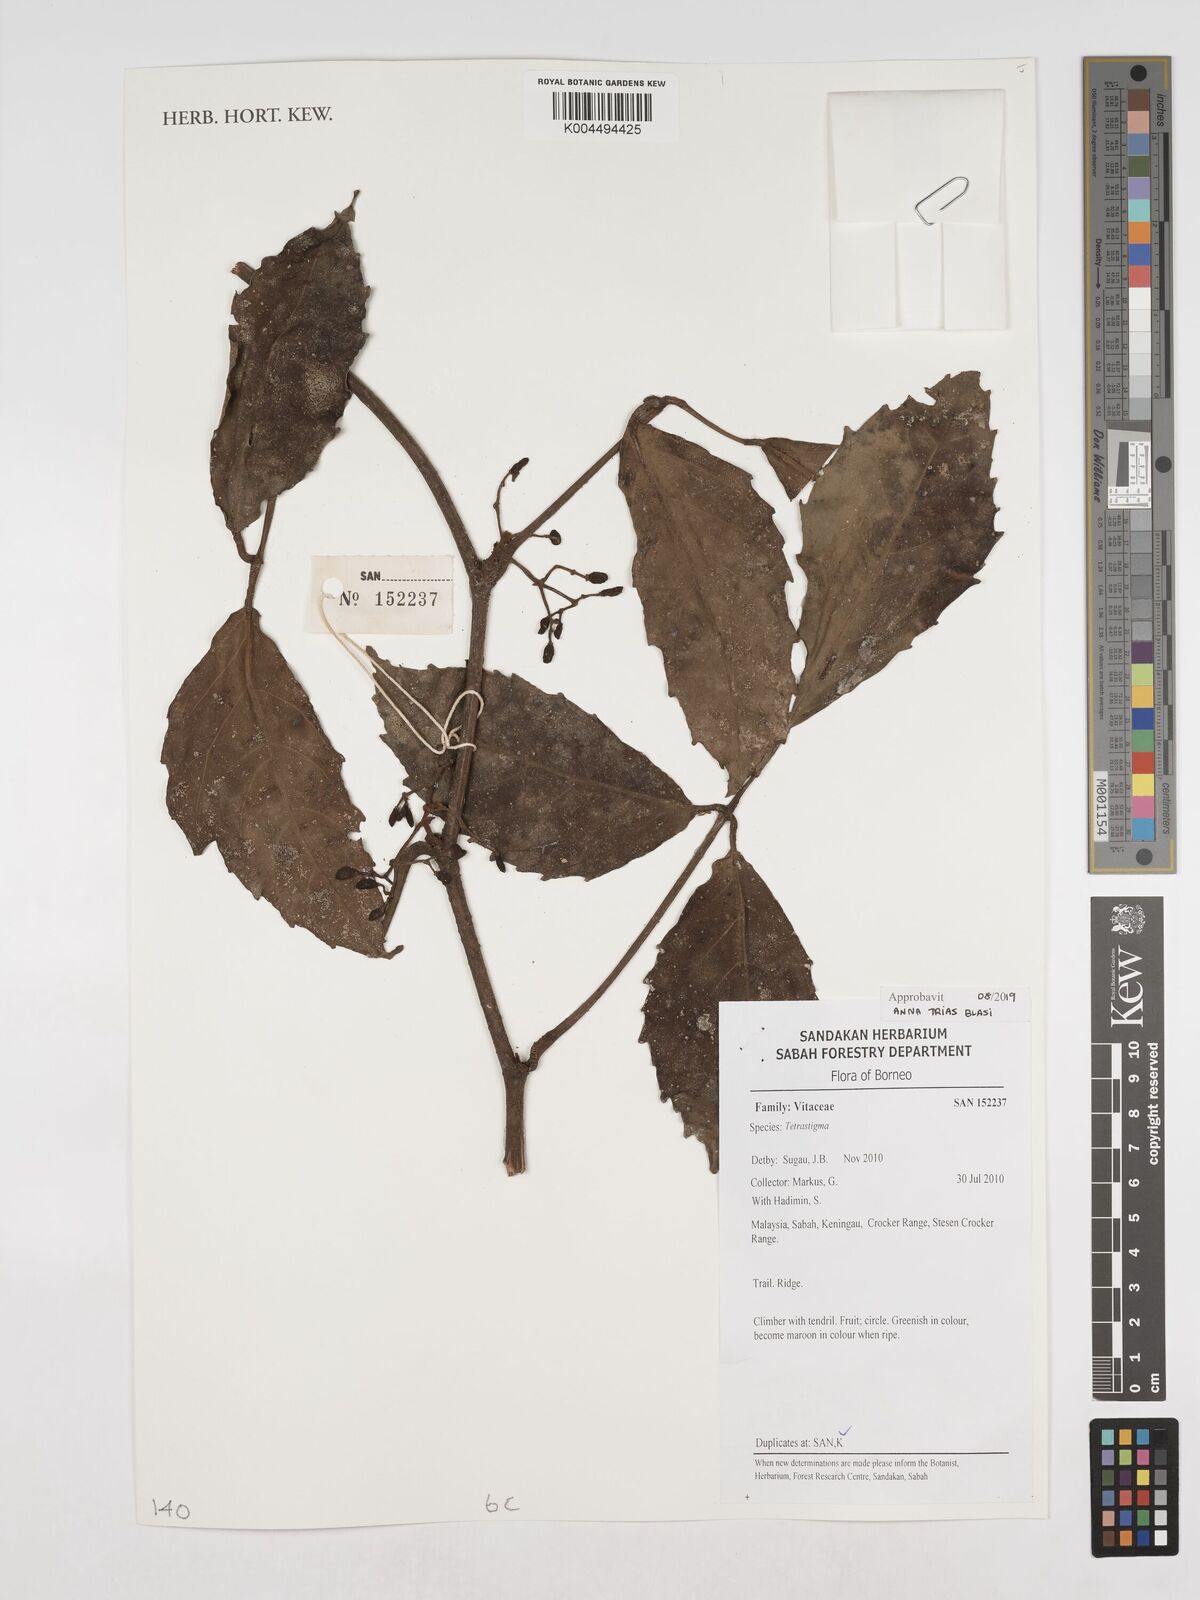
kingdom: Plantae
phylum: Tracheophyta
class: Magnoliopsida
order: Vitales
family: Vitaceae
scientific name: Vitaceae
